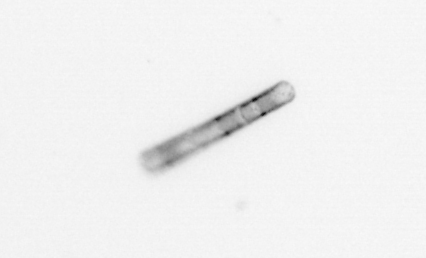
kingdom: Chromista
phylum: Ochrophyta
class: Bacillariophyceae
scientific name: Bacillariophyceae
